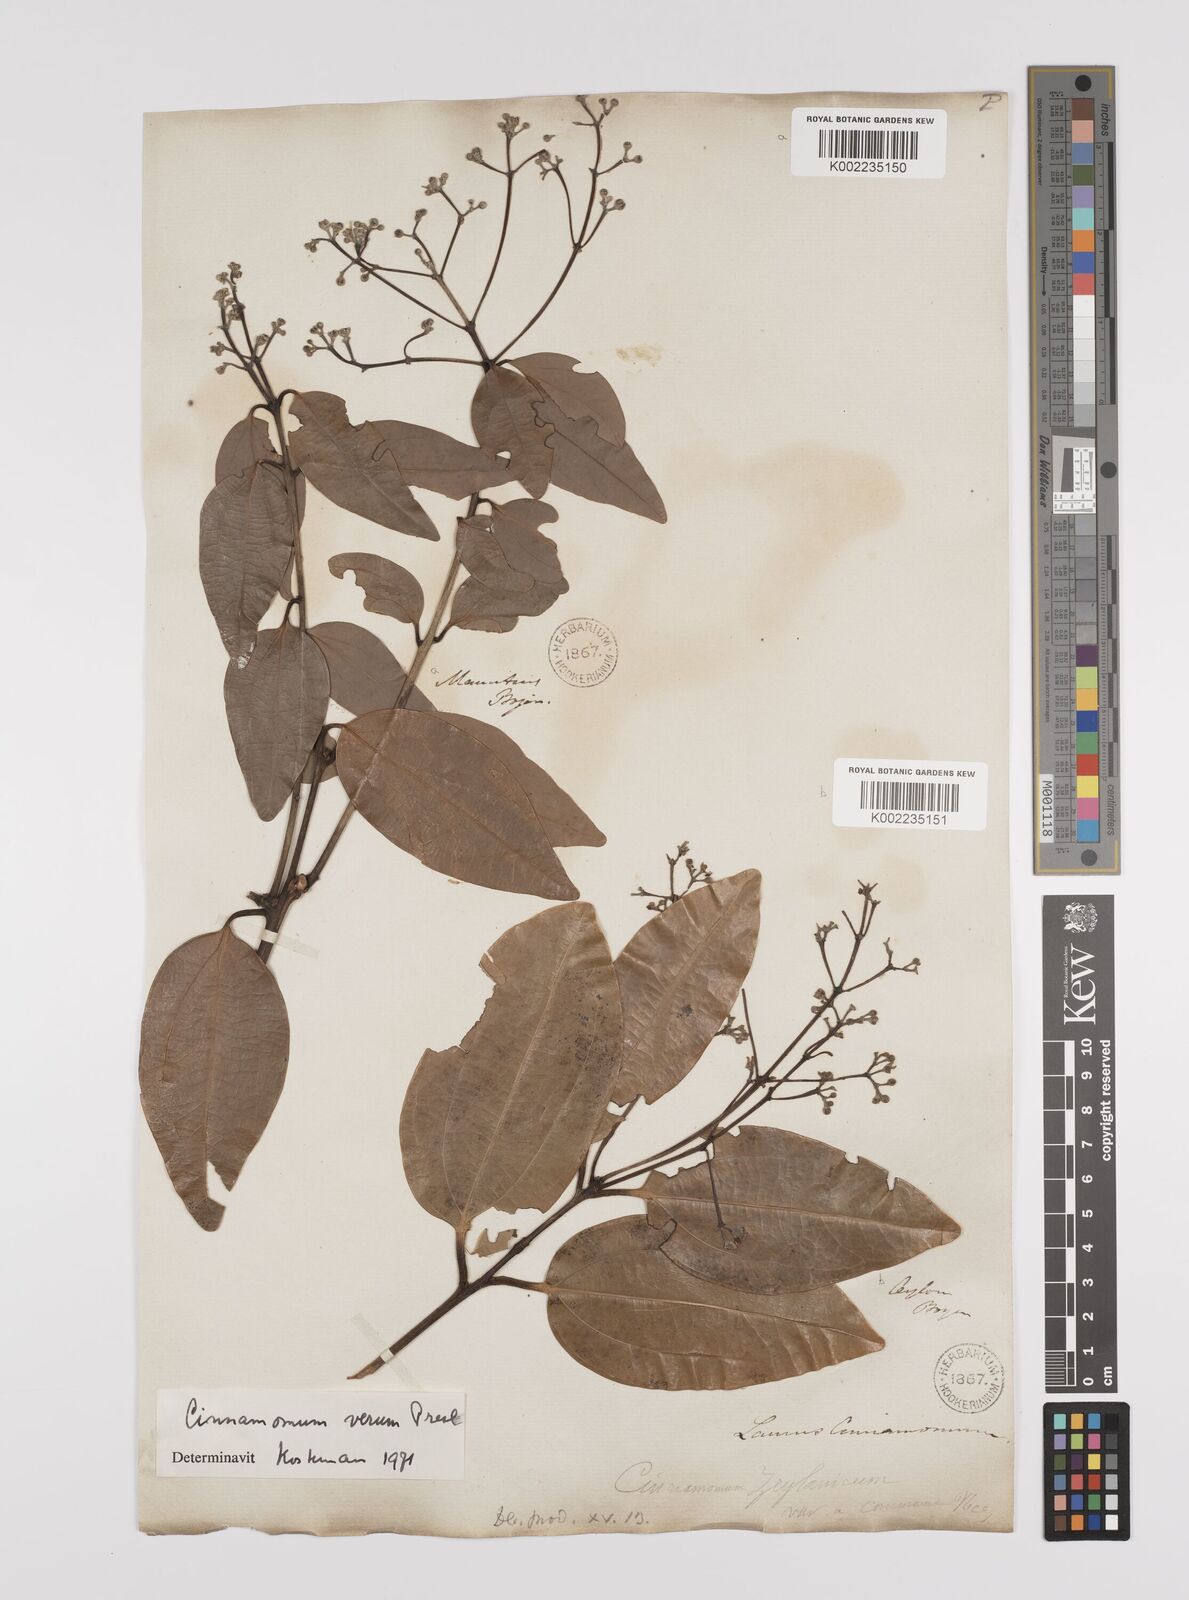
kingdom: Plantae
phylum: Tracheophyta
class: Magnoliopsida
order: Laurales
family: Lauraceae
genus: Cinnamomum
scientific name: Cinnamomum verum
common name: Cinnamon
